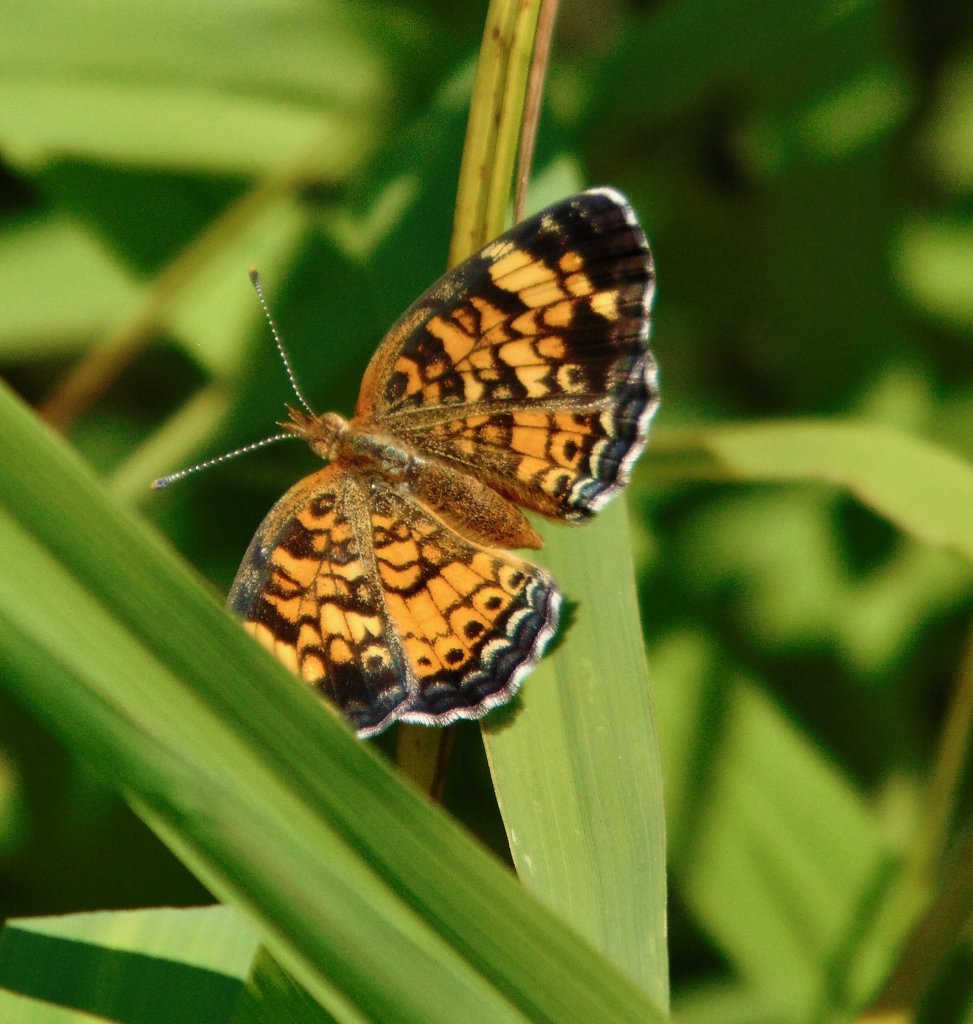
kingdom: Animalia
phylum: Arthropoda
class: Insecta
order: Lepidoptera
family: Nymphalidae
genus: Phyciodes
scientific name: Phyciodes tharos
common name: Pearl Crescent
